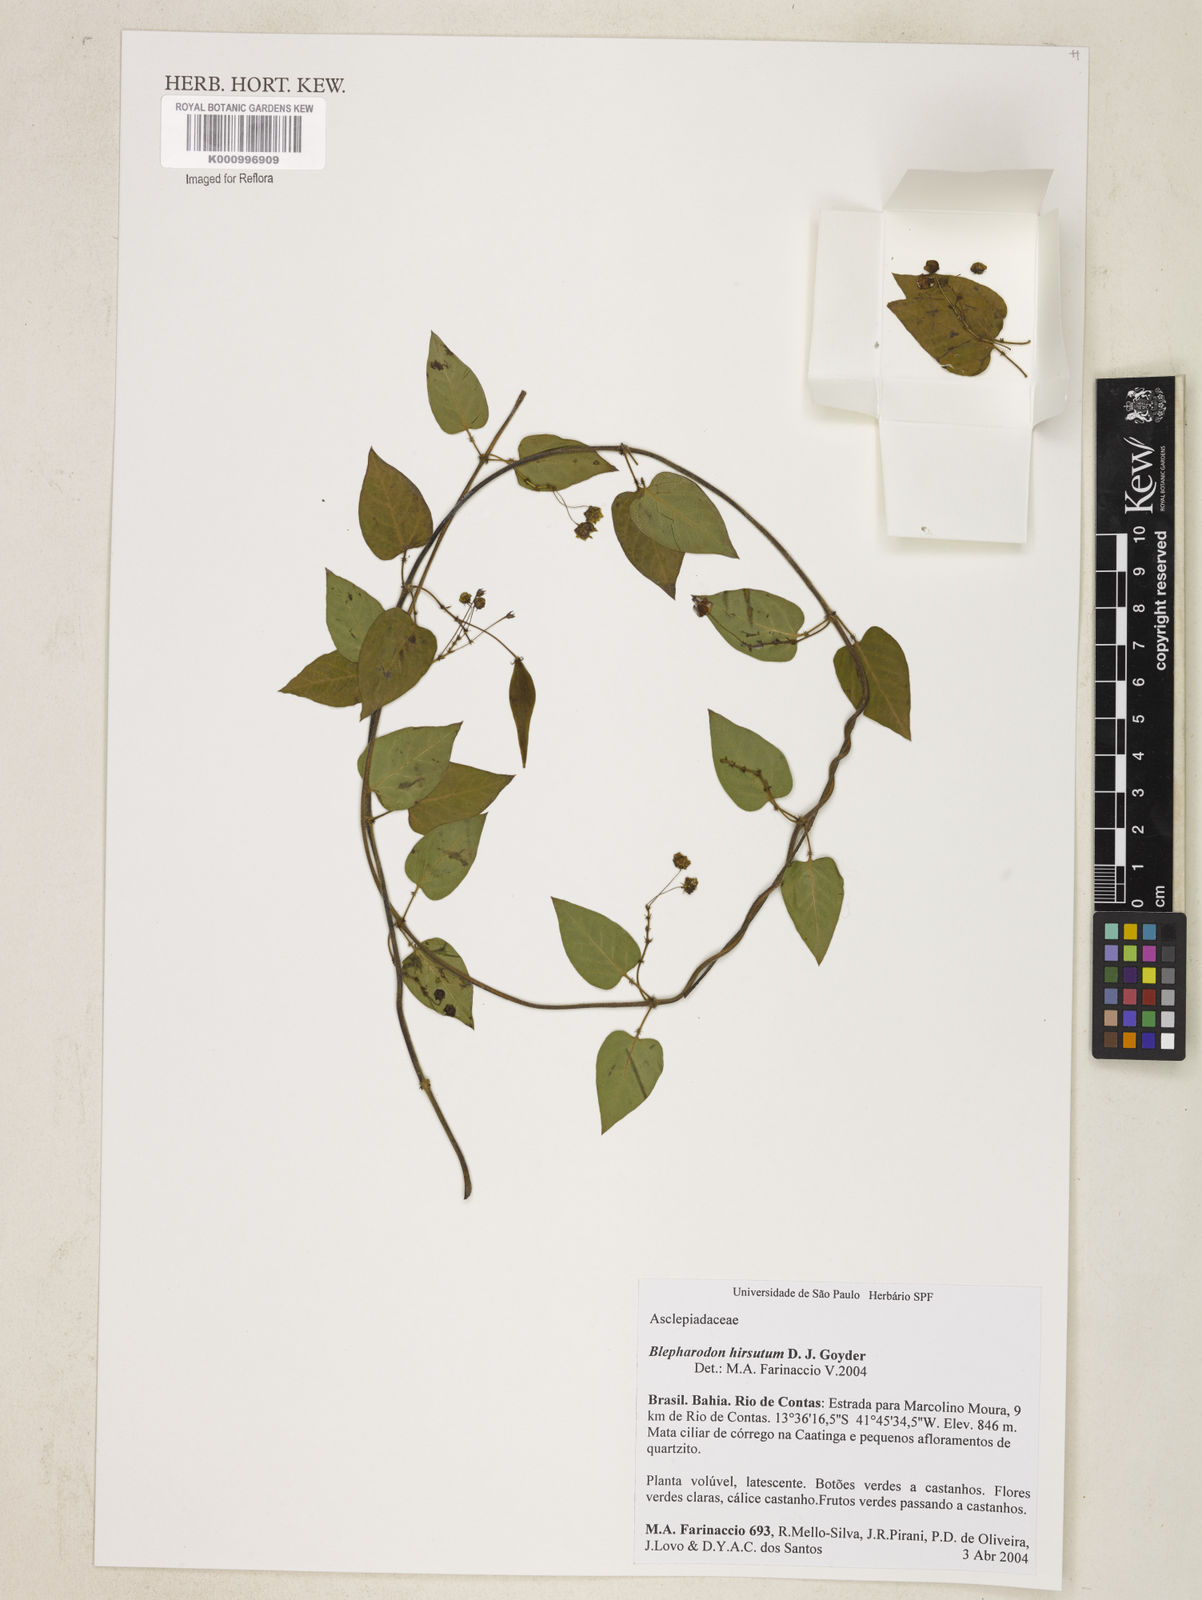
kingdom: Plantae
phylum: Tracheophyta
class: Magnoliopsida
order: Gentianales
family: Apocynaceae
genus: Blepharodon
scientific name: Blepharodon manicatum
